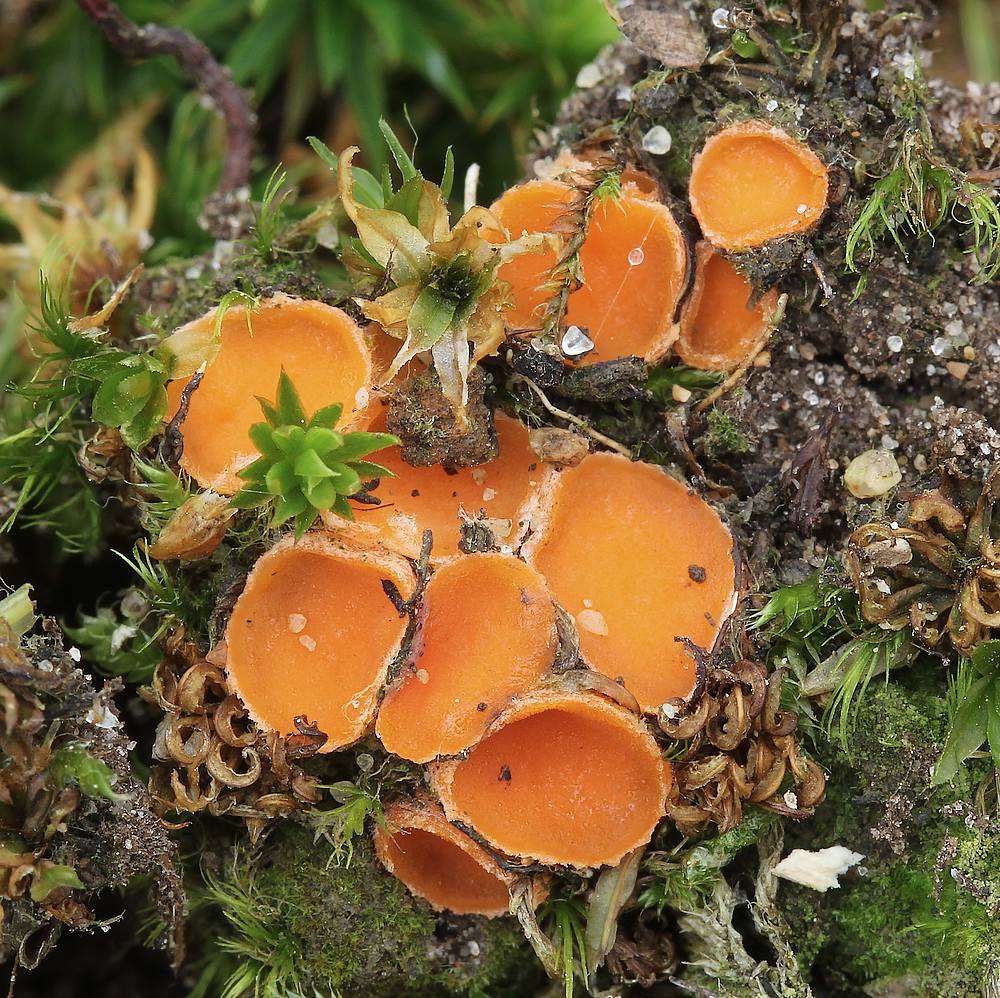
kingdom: Fungi
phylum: Ascomycota
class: Pezizomycetes
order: Pezizales
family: Pyronemataceae
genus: Neottiella
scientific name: Neottiella hetieri
